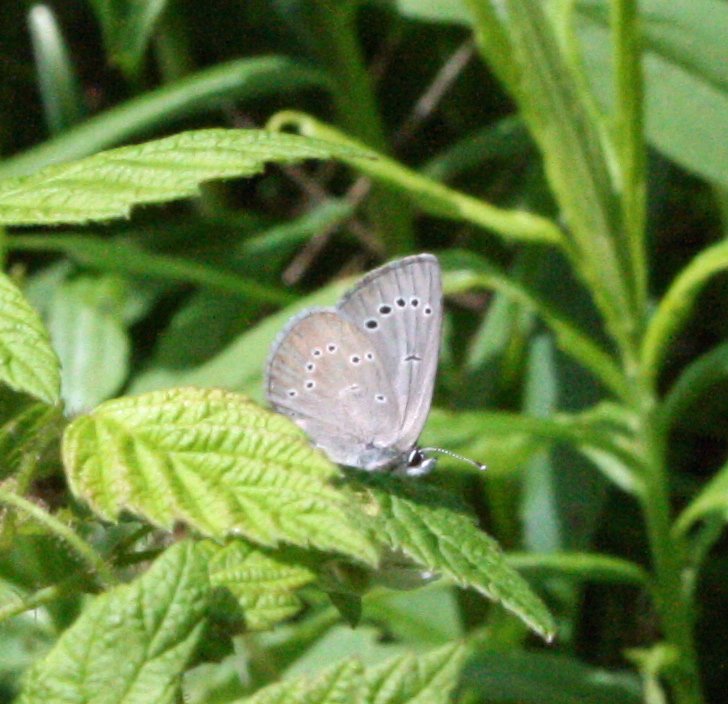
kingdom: Animalia
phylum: Arthropoda
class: Insecta
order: Lepidoptera
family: Lycaenidae
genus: Glaucopsyche
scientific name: Glaucopsyche lygdamus
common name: Silvery Blue
